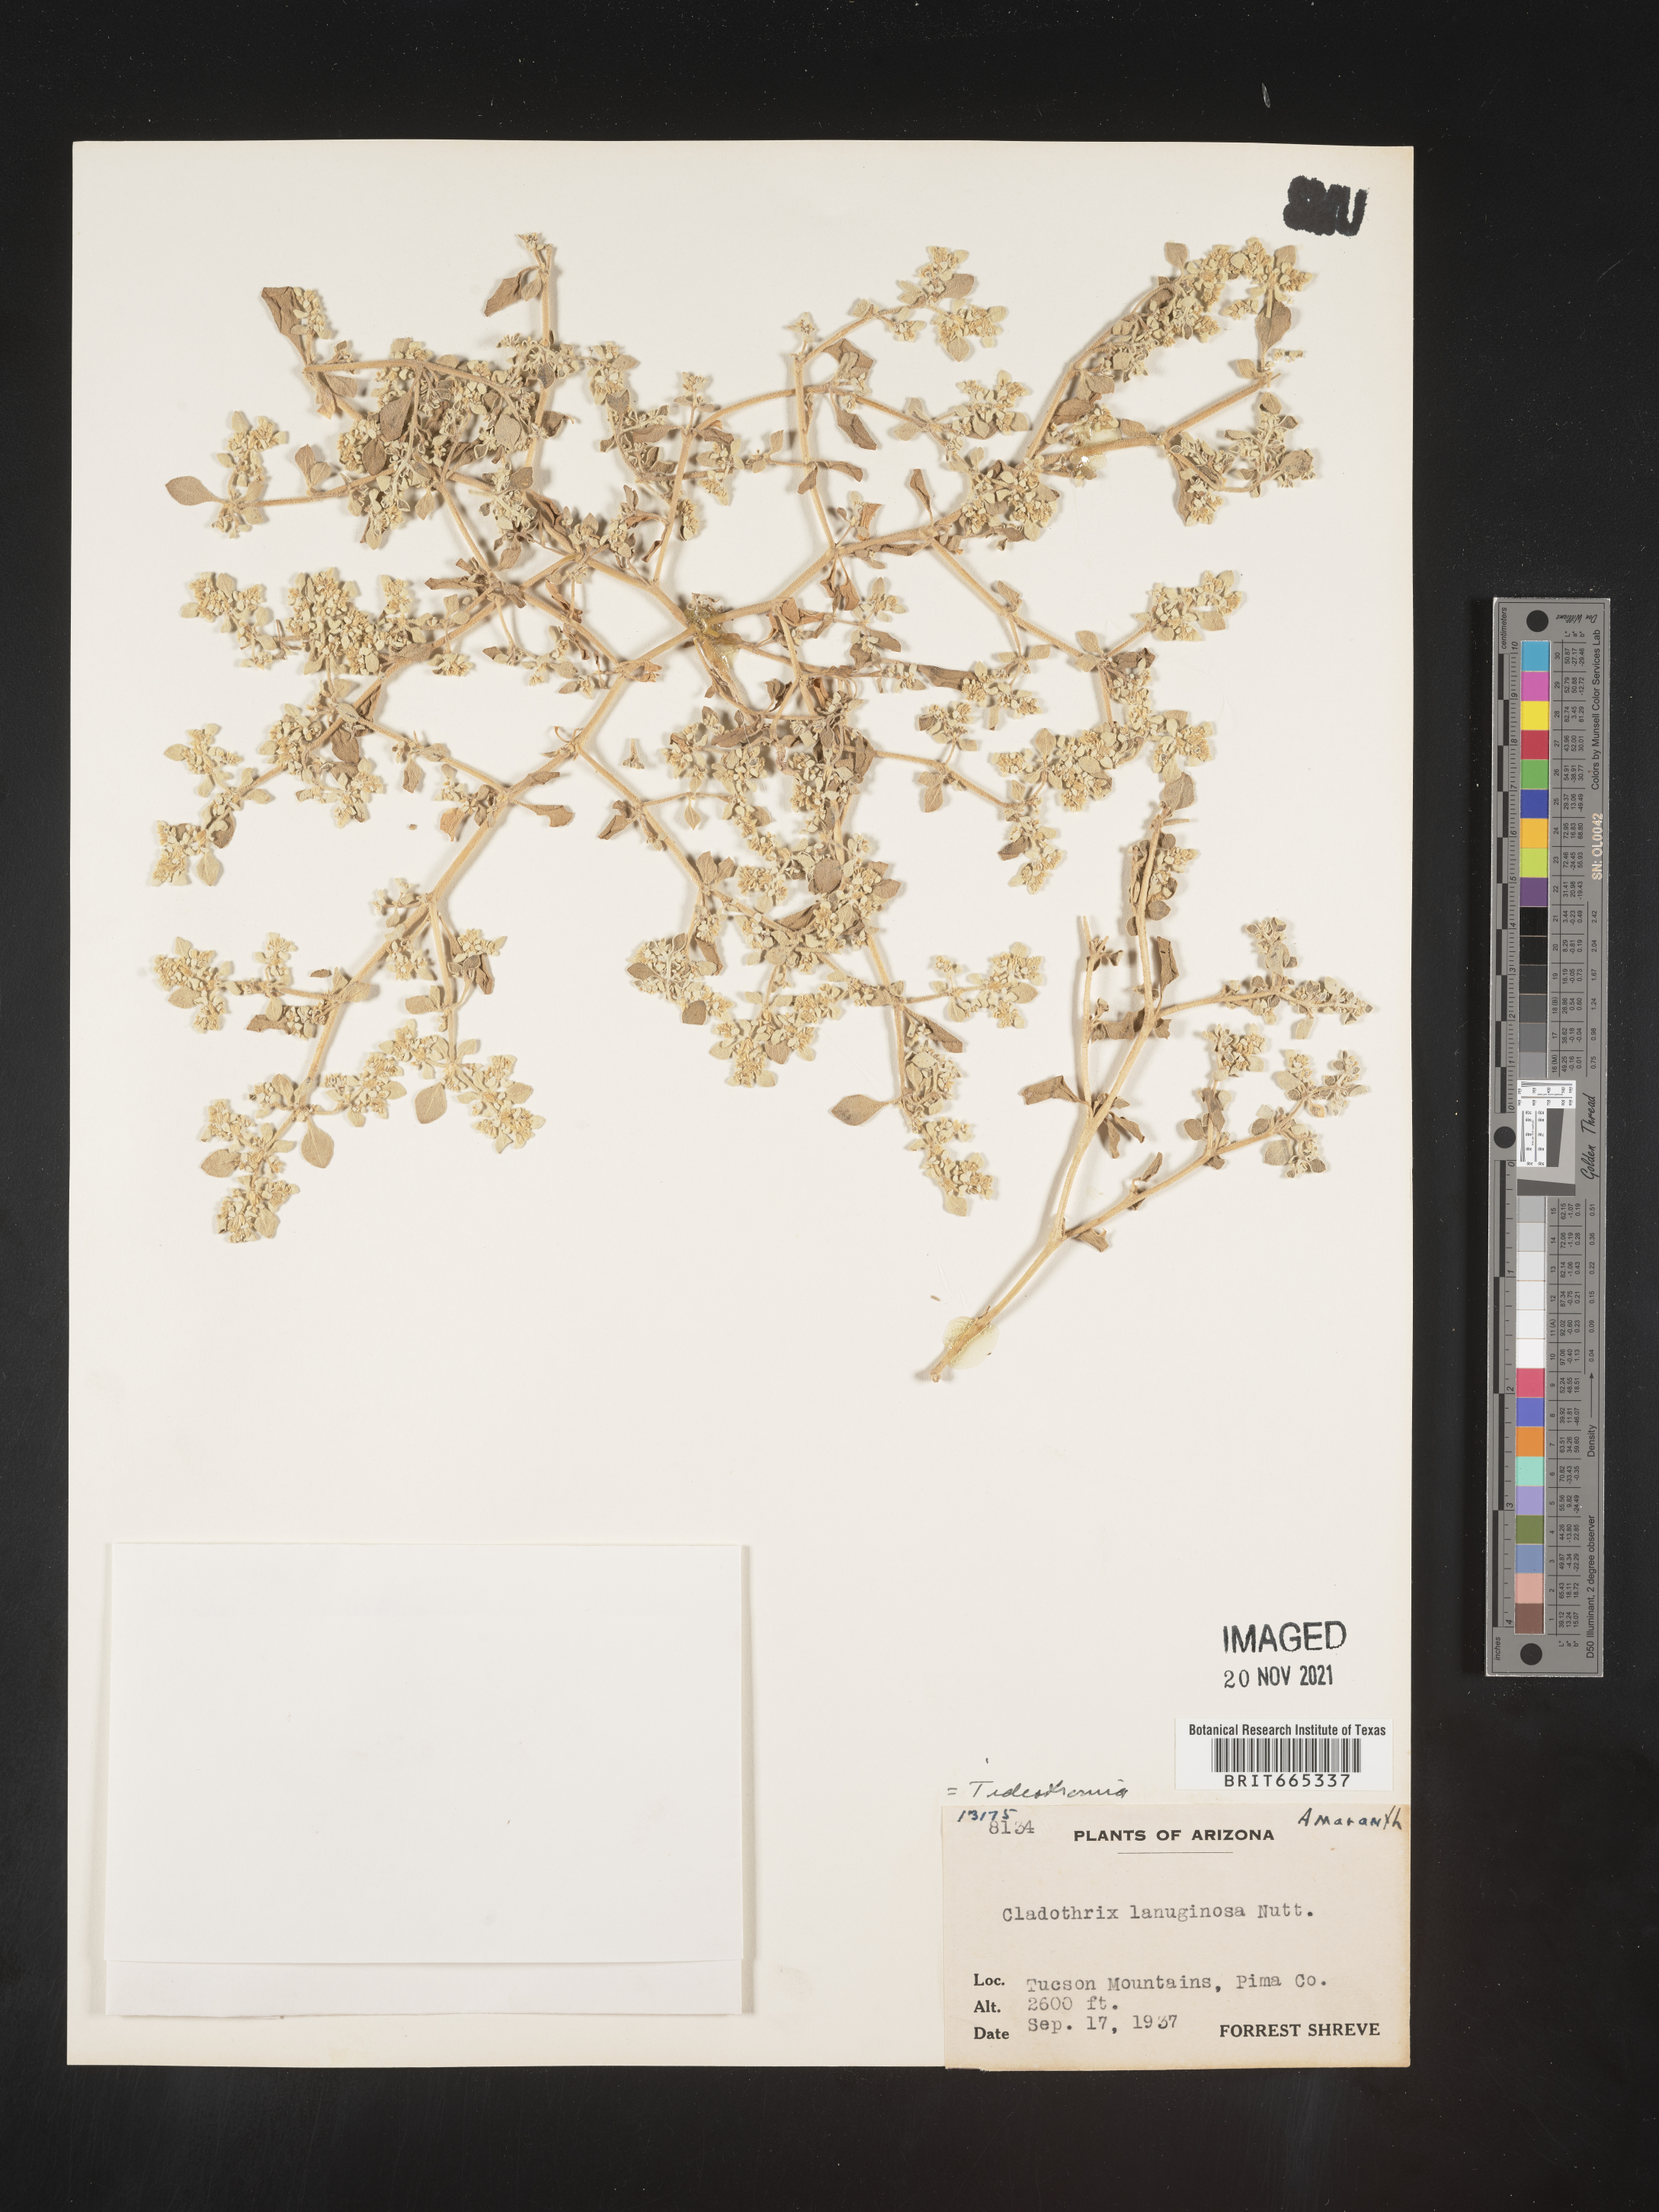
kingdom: Plantae
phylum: Tracheophyta
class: Magnoliopsida
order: Caryophyllales
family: Amaranthaceae
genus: Tidestromia
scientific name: Tidestromia lanuginosa
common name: Woolly tidestromia
